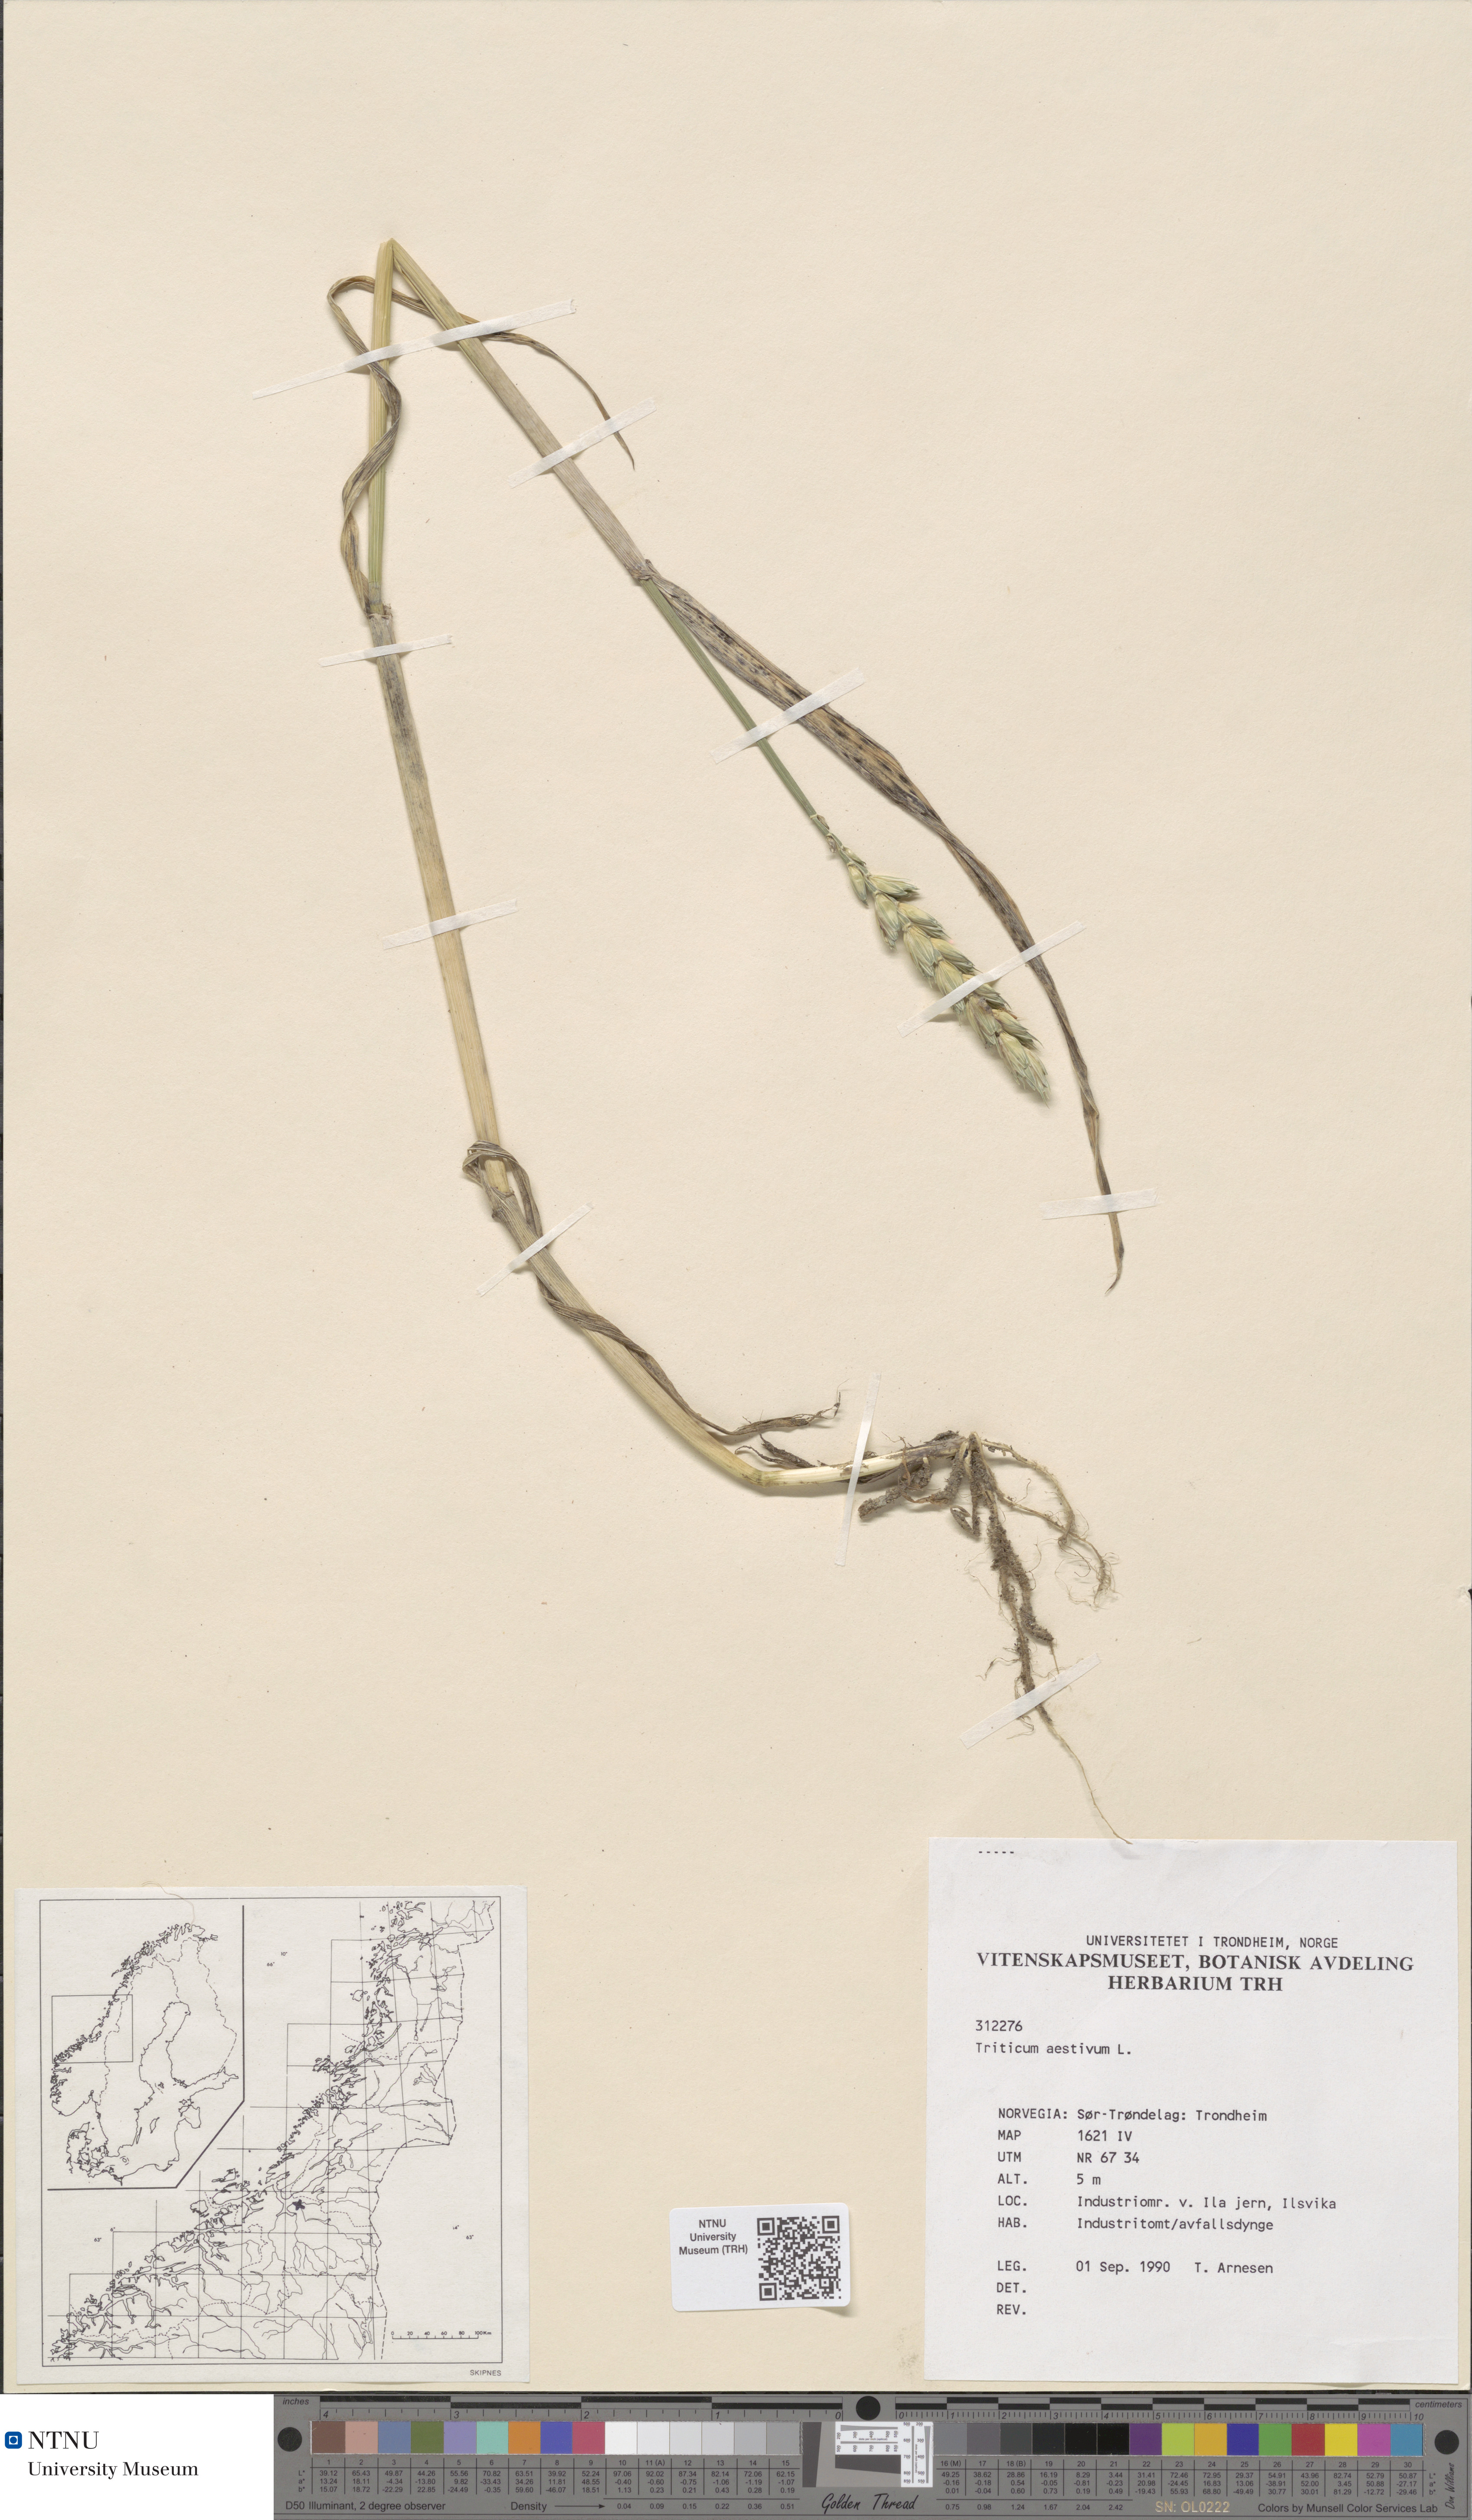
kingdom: Plantae
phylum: Tracheophyta
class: Liliopsida
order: Poales
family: Poaceae
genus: Triticum
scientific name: Triticum aestivum
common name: Common wheat
